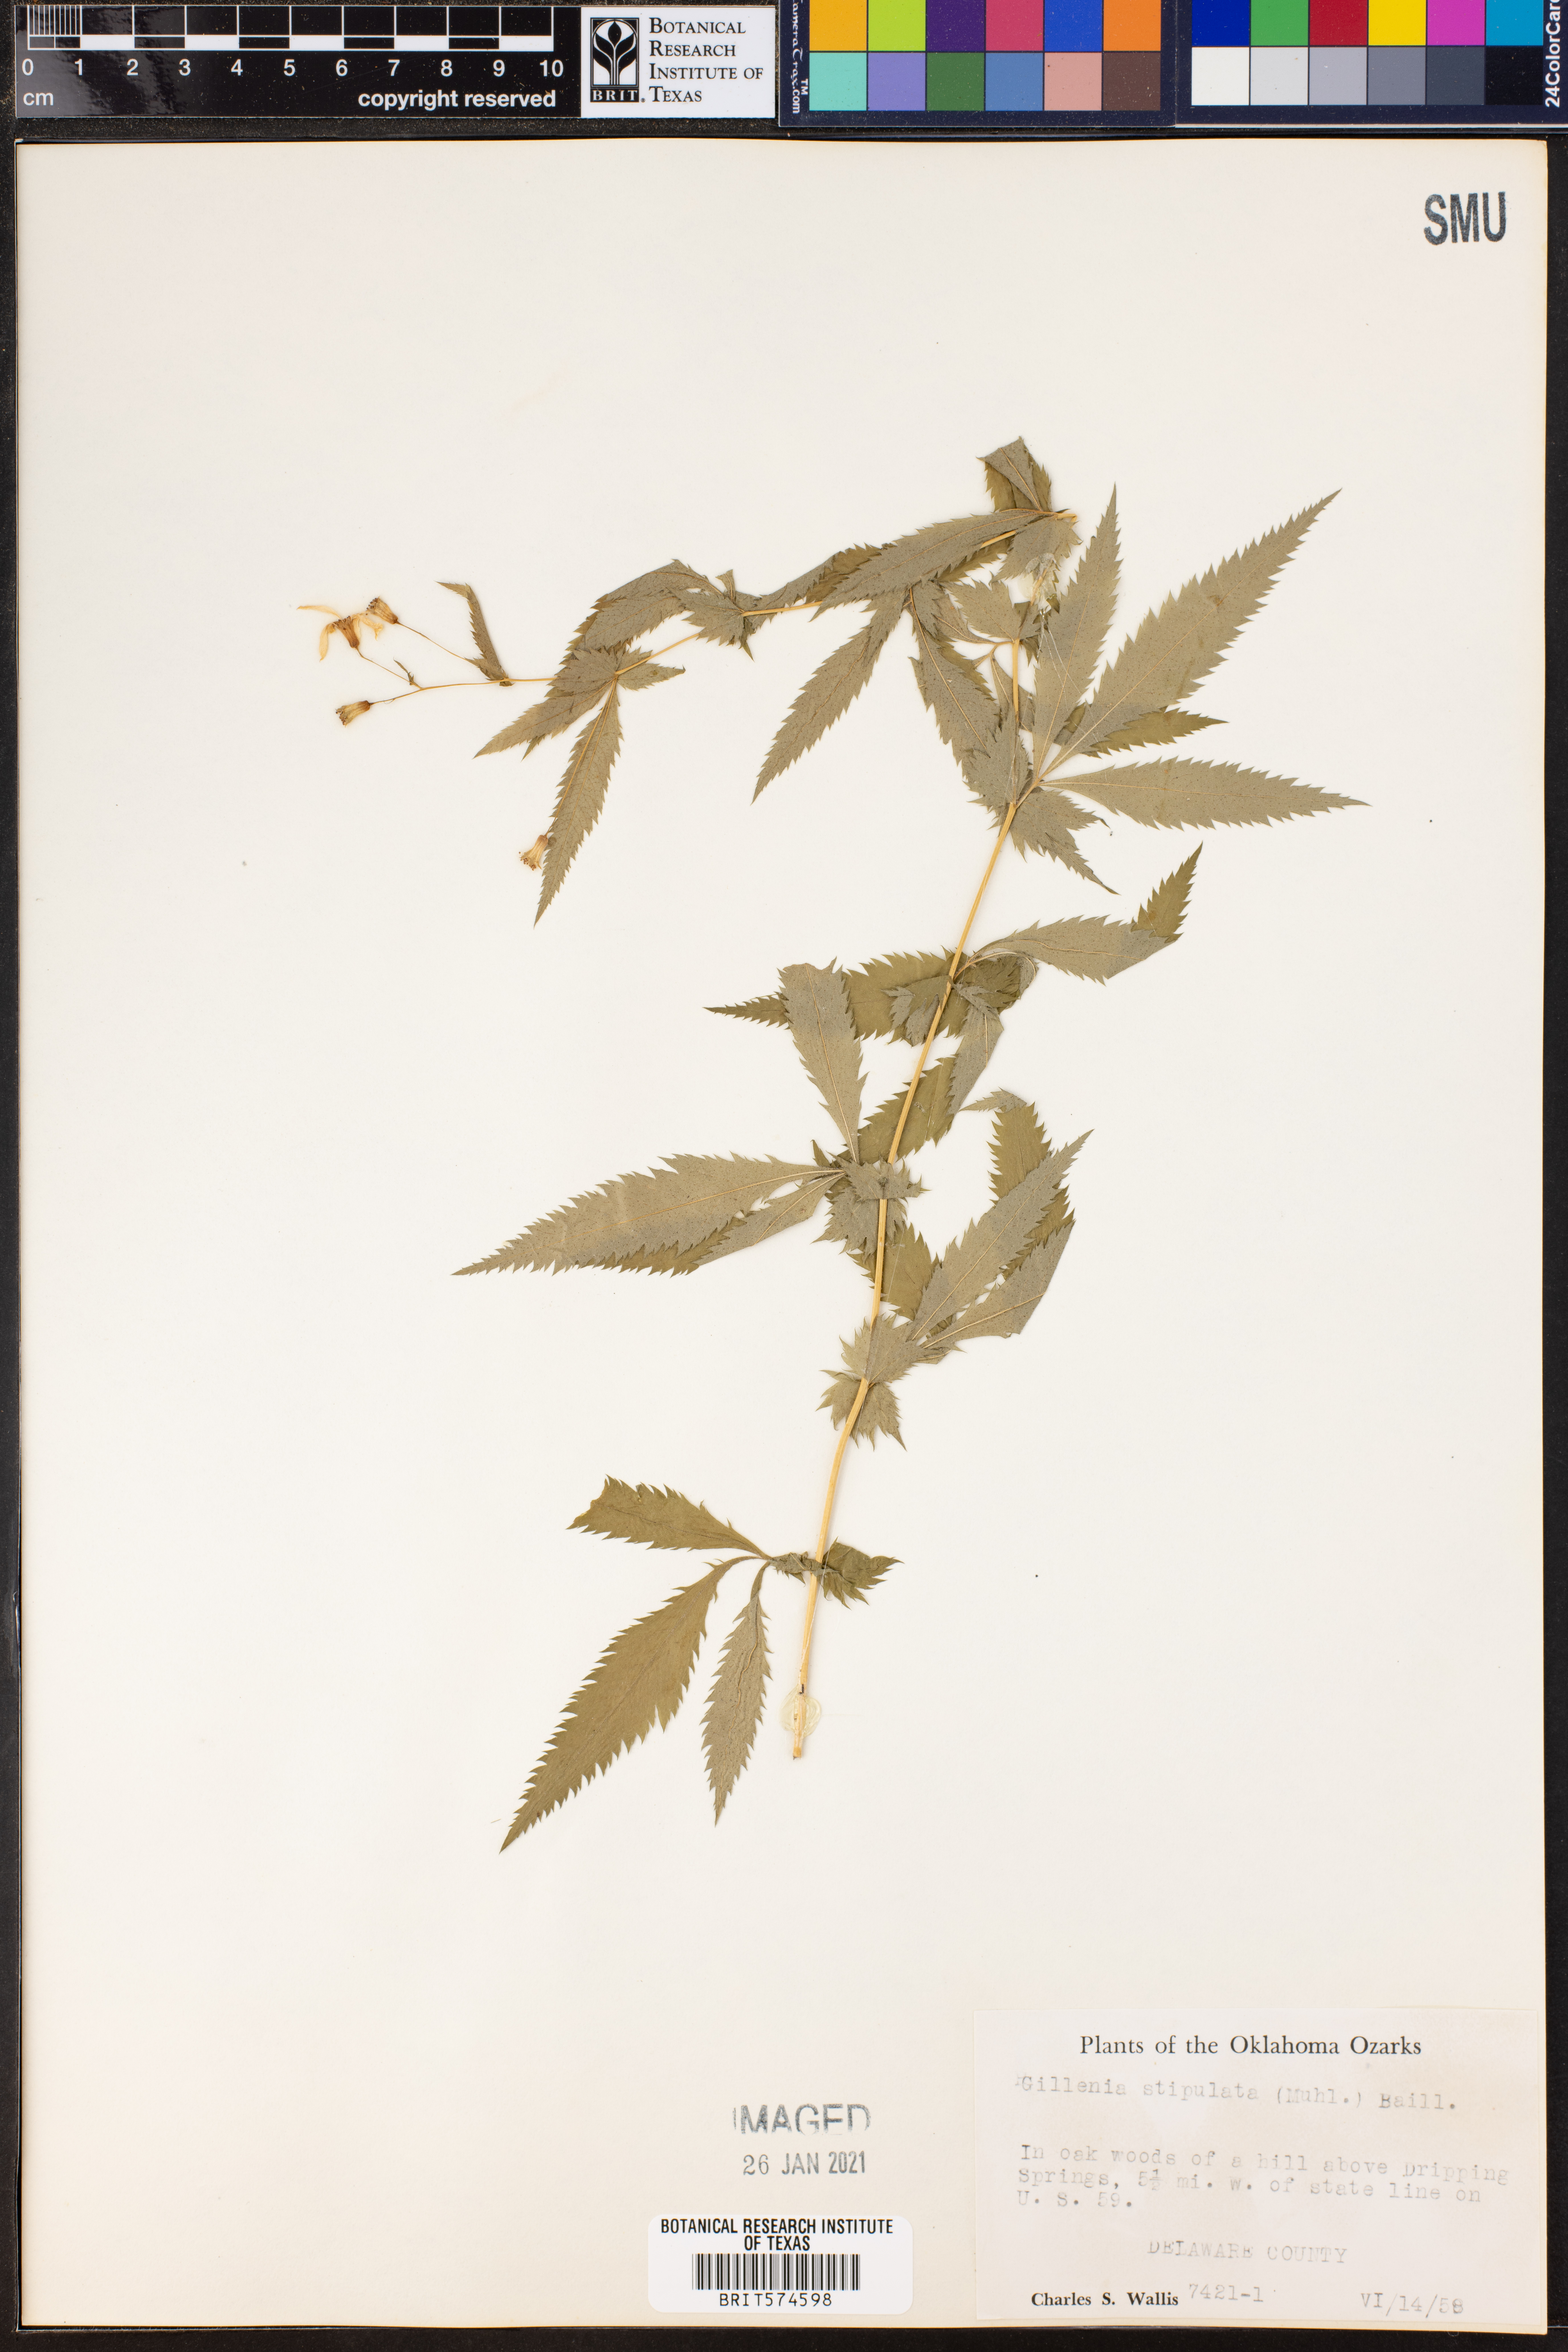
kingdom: Plantae
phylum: Tracheophyta
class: Magnoliopsida
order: Rosales
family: Rosaceae
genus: Gillenia
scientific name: Gillenia stipulata
